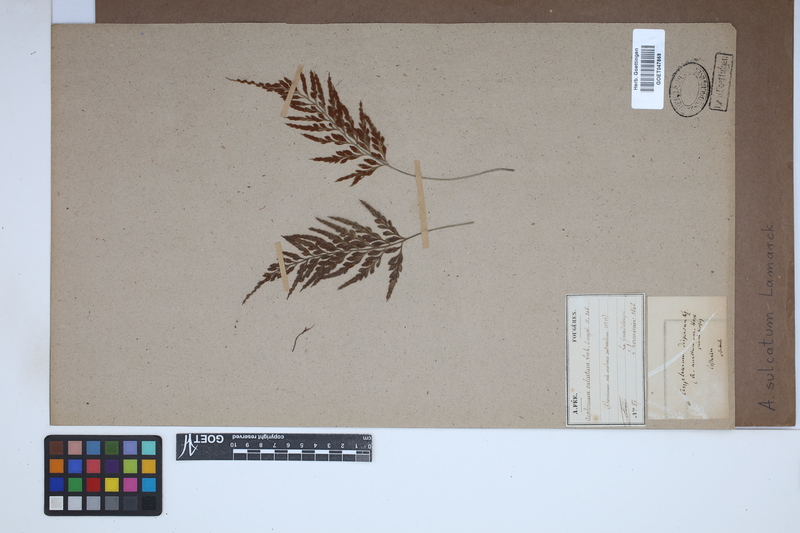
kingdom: Plantae
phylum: Tracheophyta
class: Polypodiopsida
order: Polypodiales
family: Aspleniaceae
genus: Asplenium
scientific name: Asplenium sulcatum
